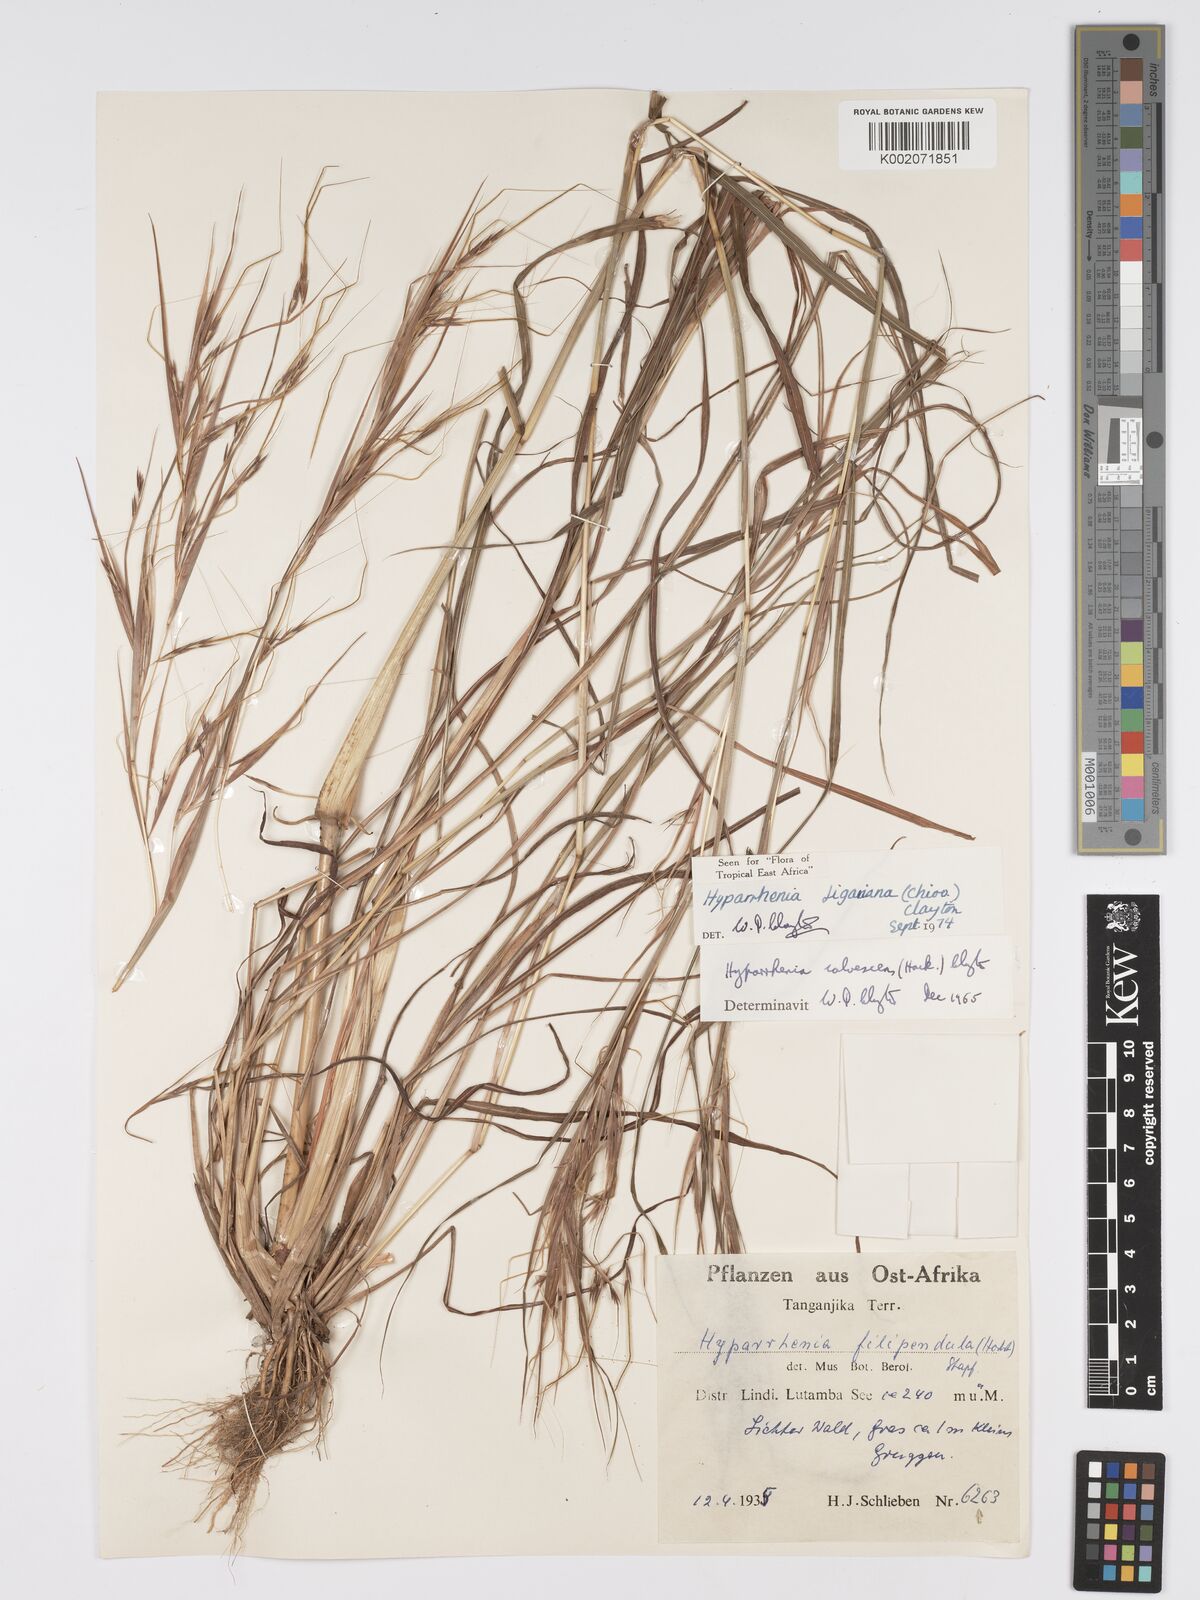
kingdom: Plantae
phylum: Tracheophyta
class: Liliopsida
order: Poales
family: Poaceae
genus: Hyparrhenia
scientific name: Hyparrhenia figariana
